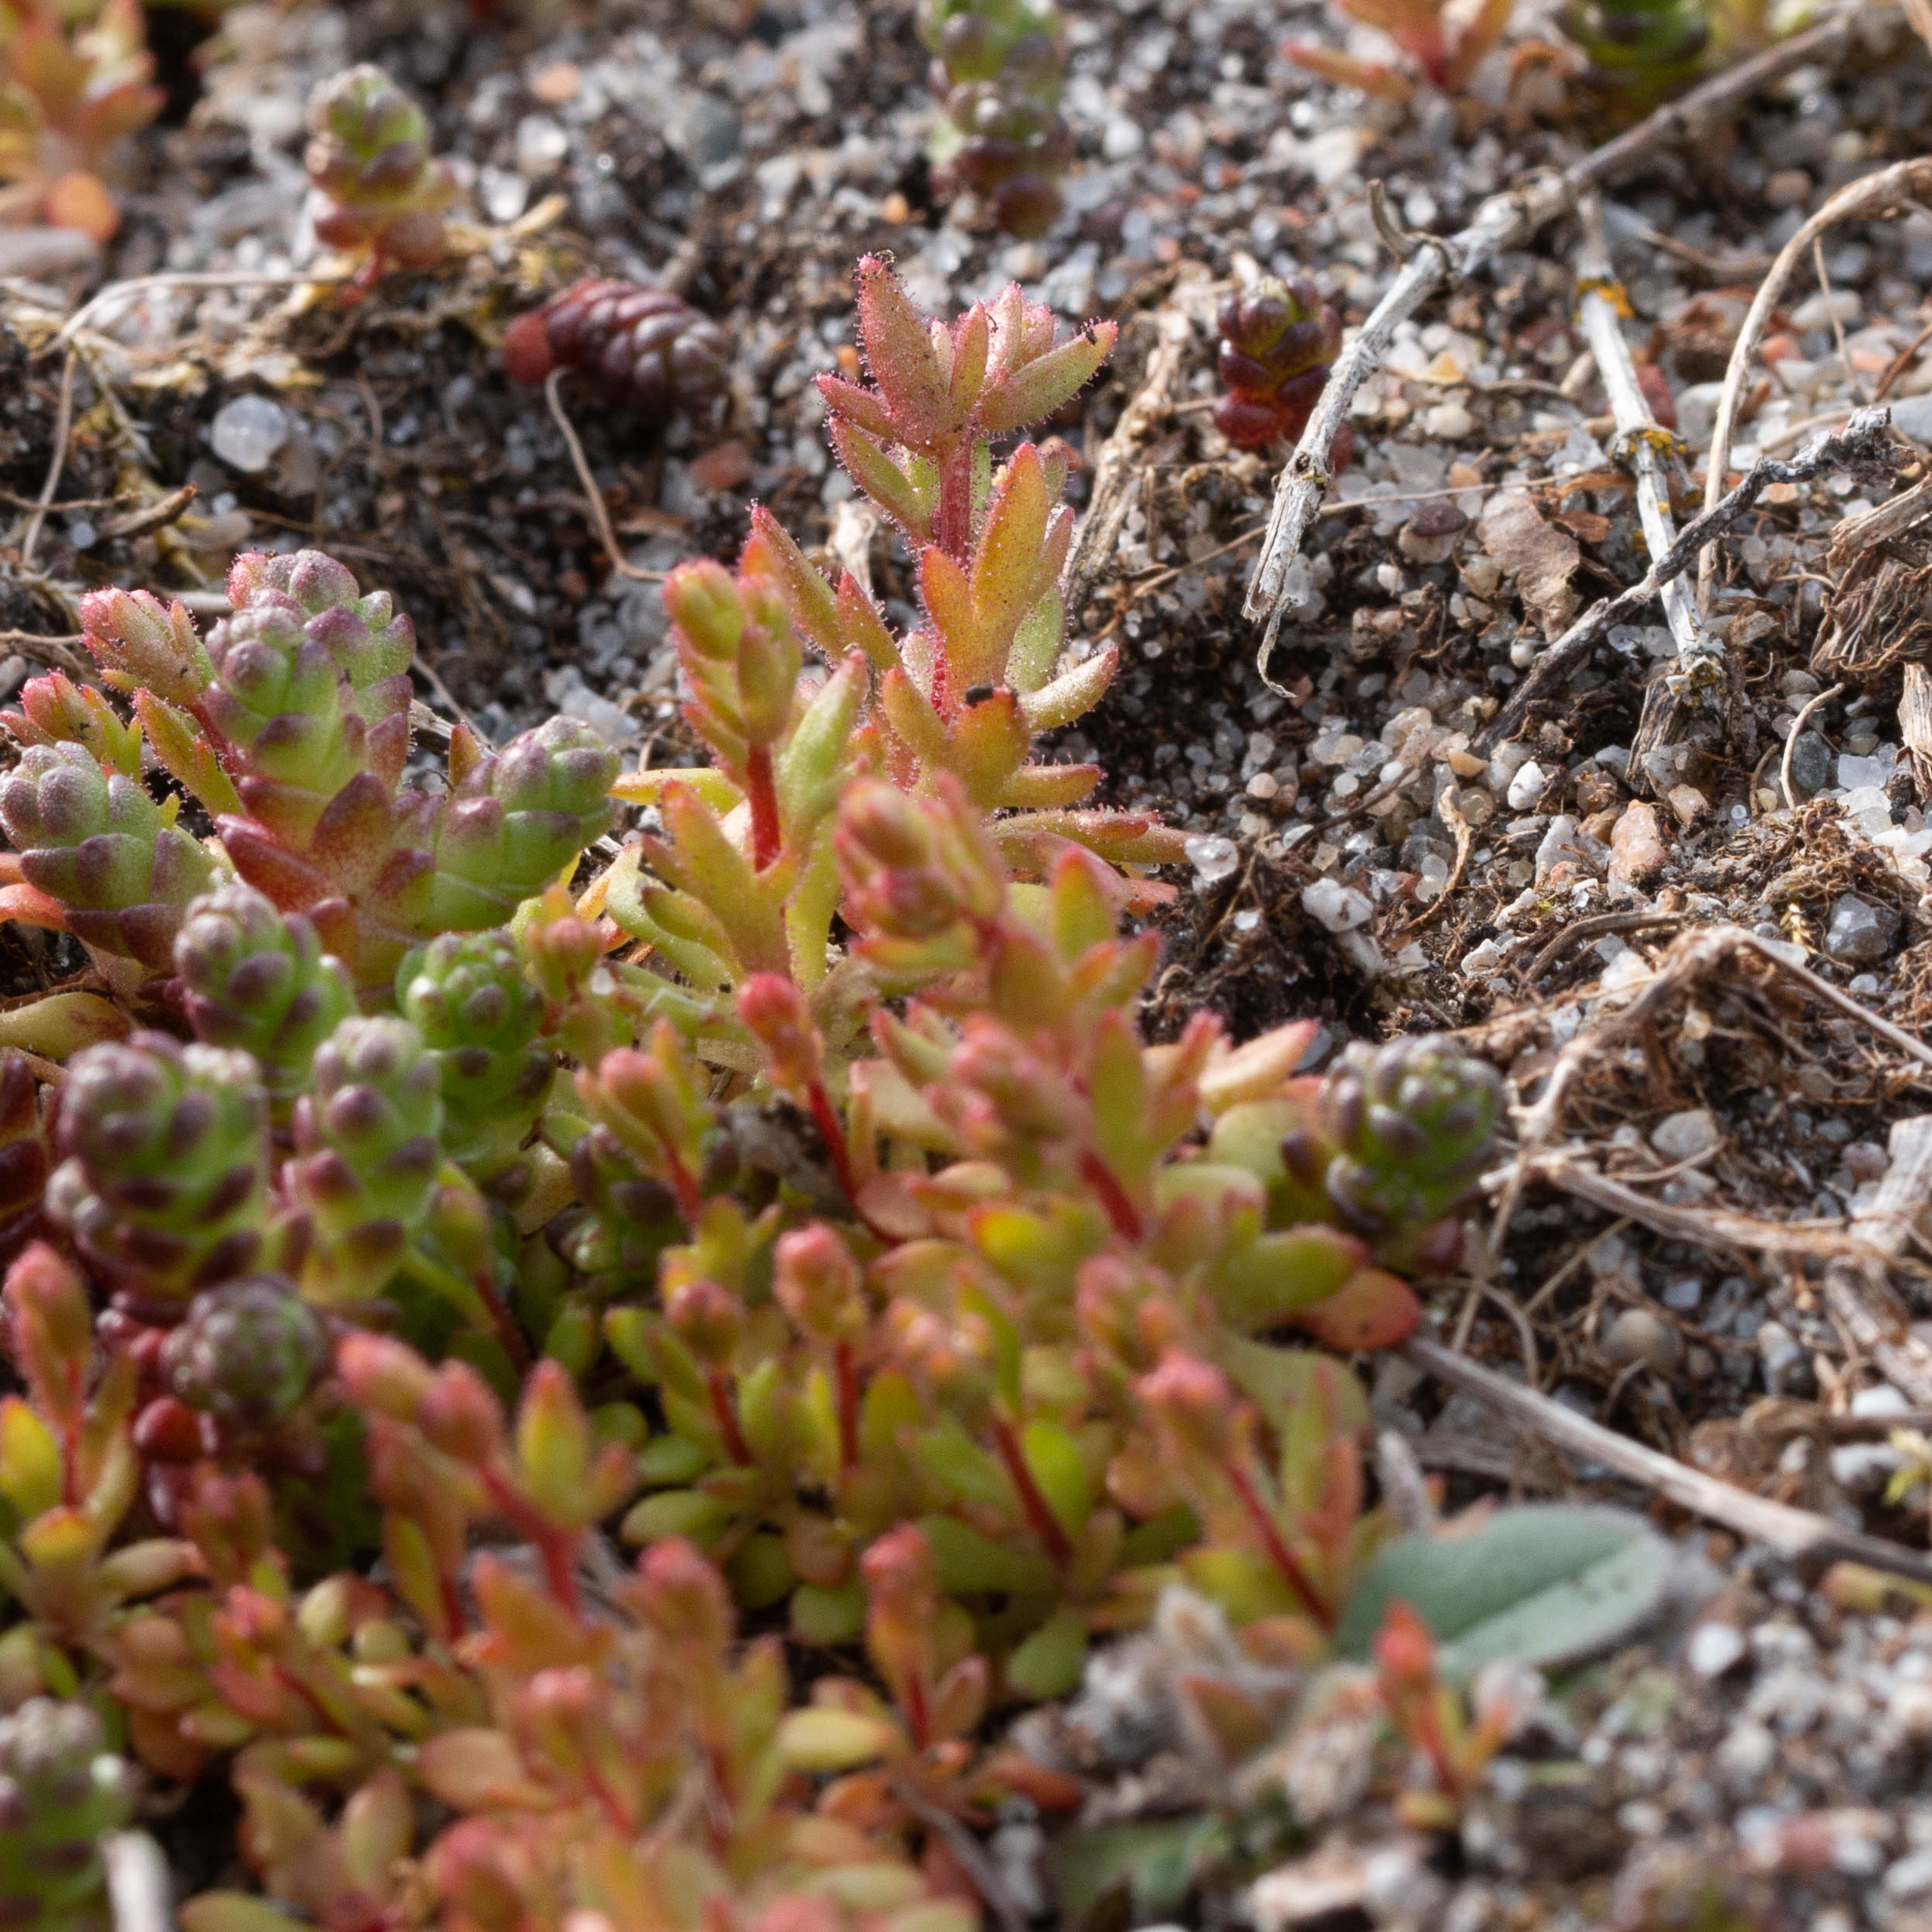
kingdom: Plantae
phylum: Tracheophyta
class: Magnoliopsida
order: Saxifragales
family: Saxifragaceae
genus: Saxifraga
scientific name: Saxifraga tridactylites
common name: Trekløft-stenbræk
